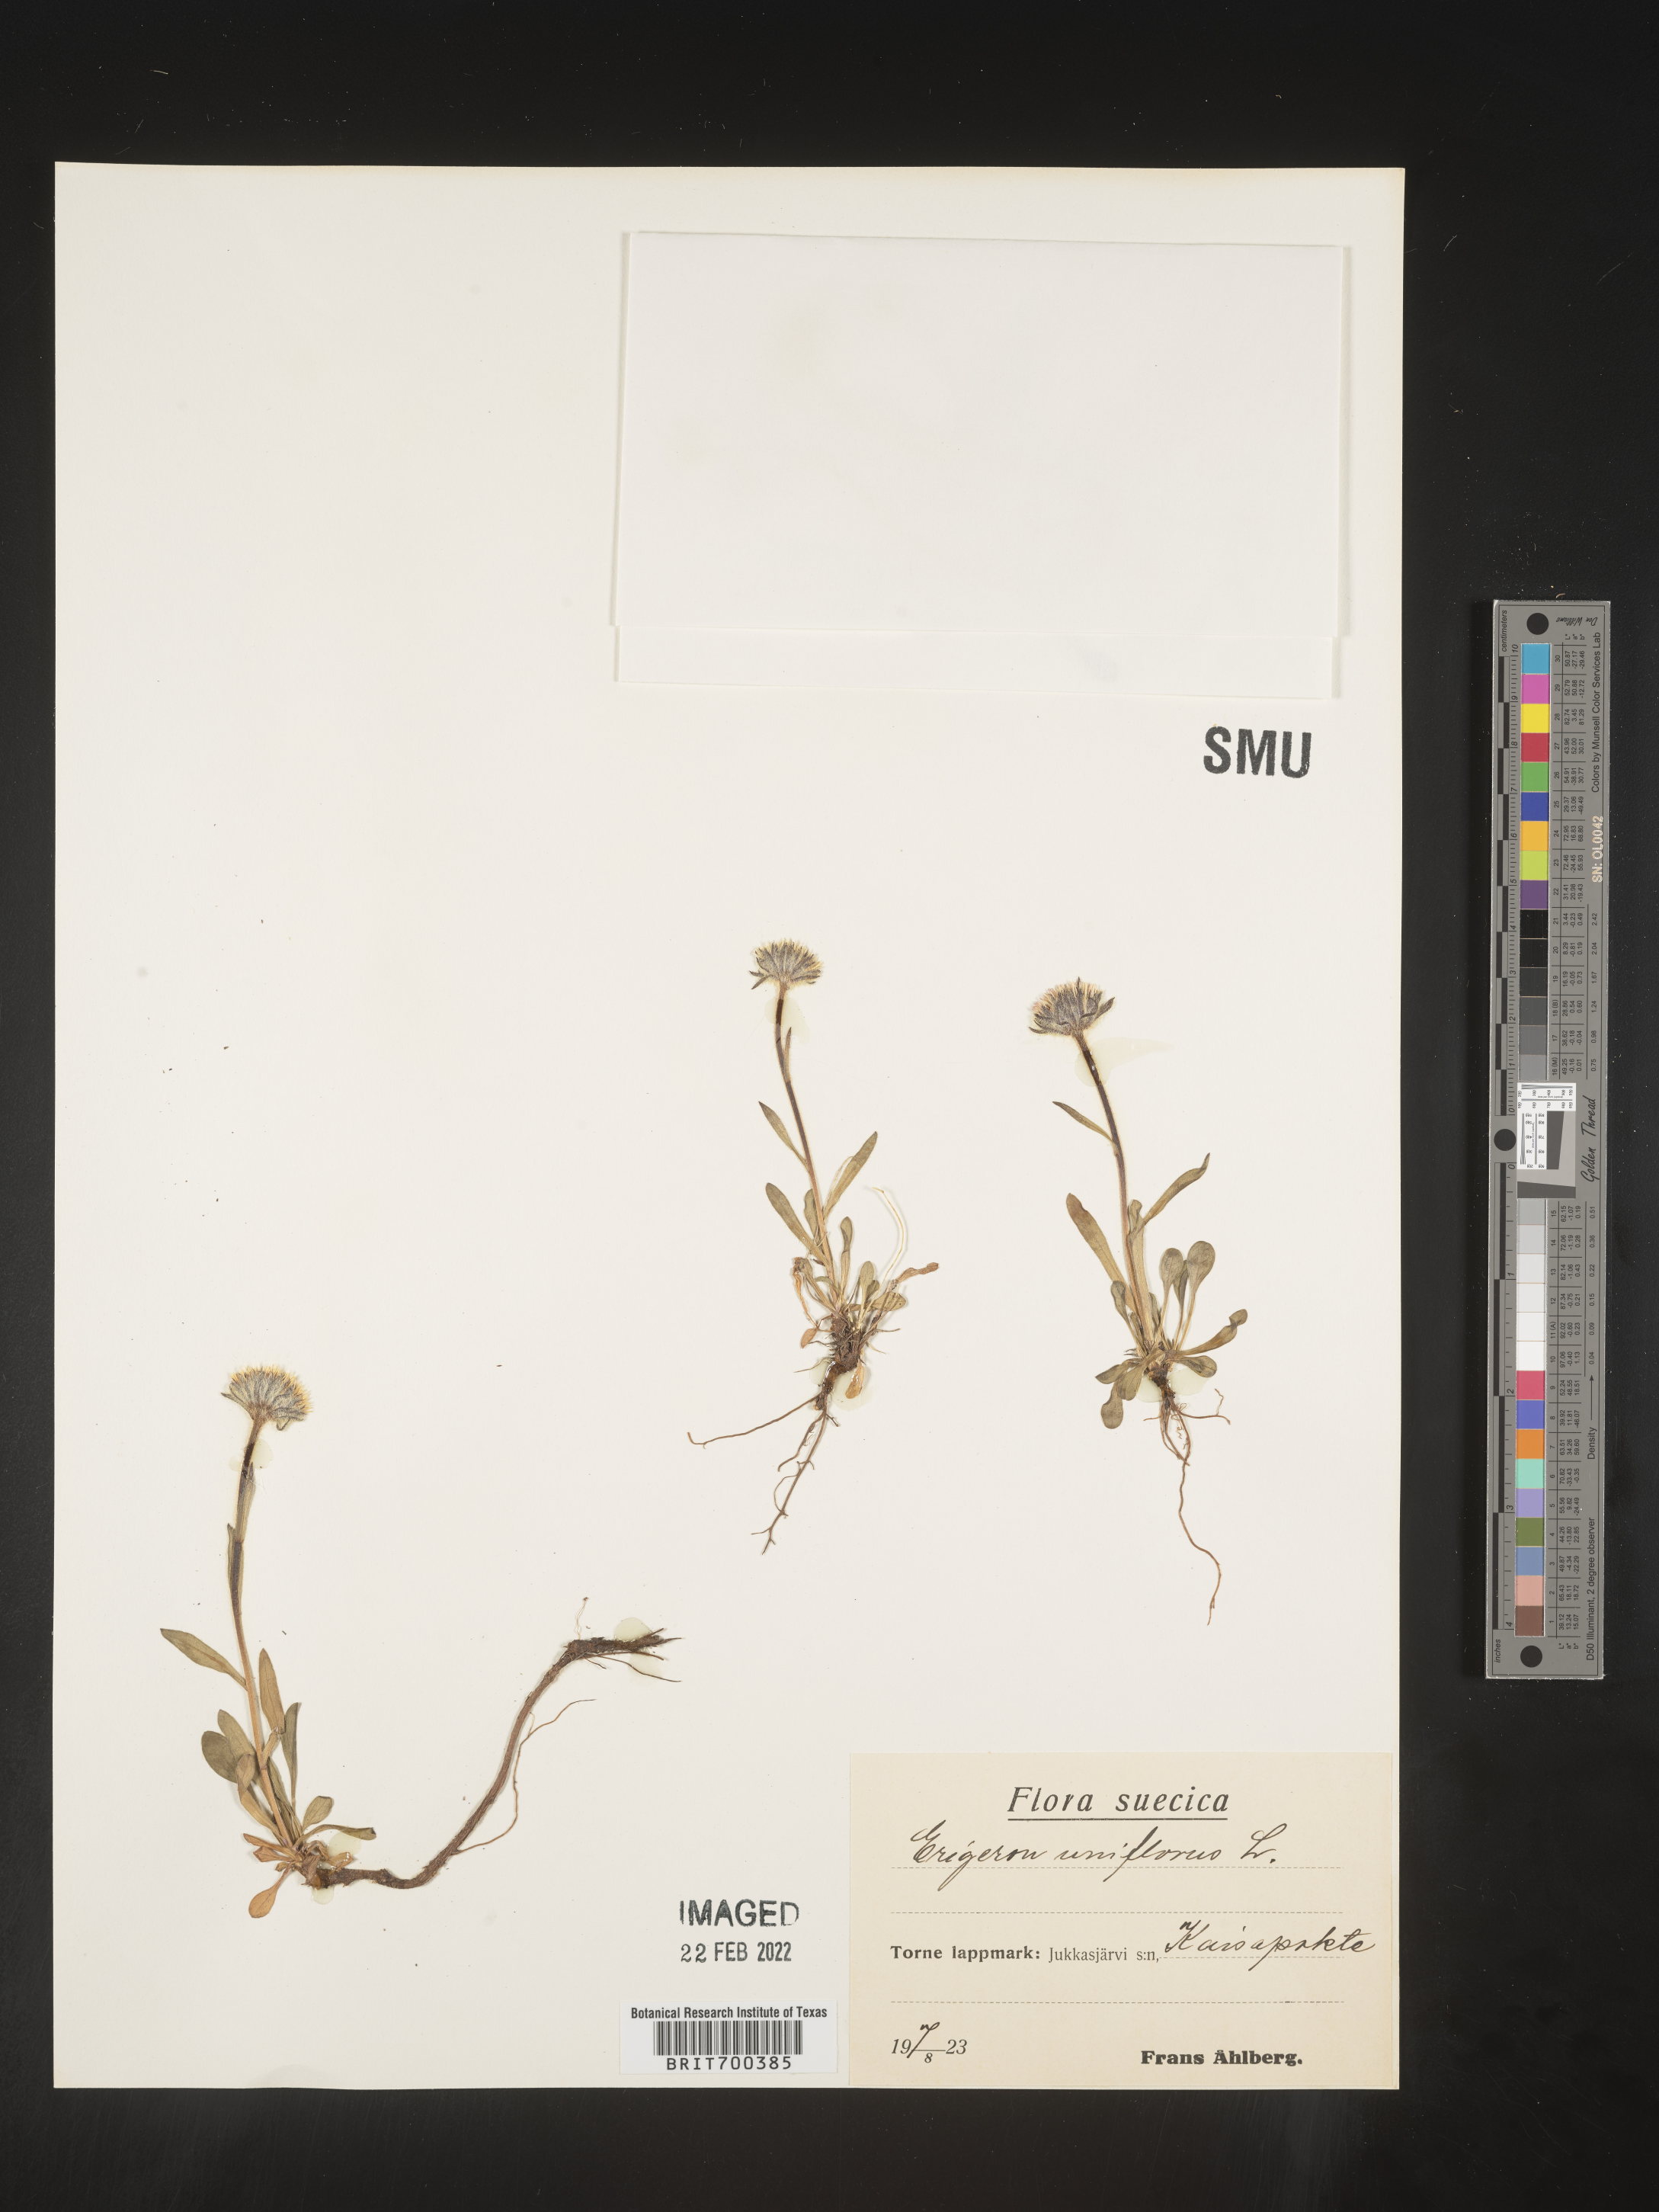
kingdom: Plantae
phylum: Tracheophyta
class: Magnoliopsida
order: Asterales
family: Asteraceae
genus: Erigeron
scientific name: Erigeron
